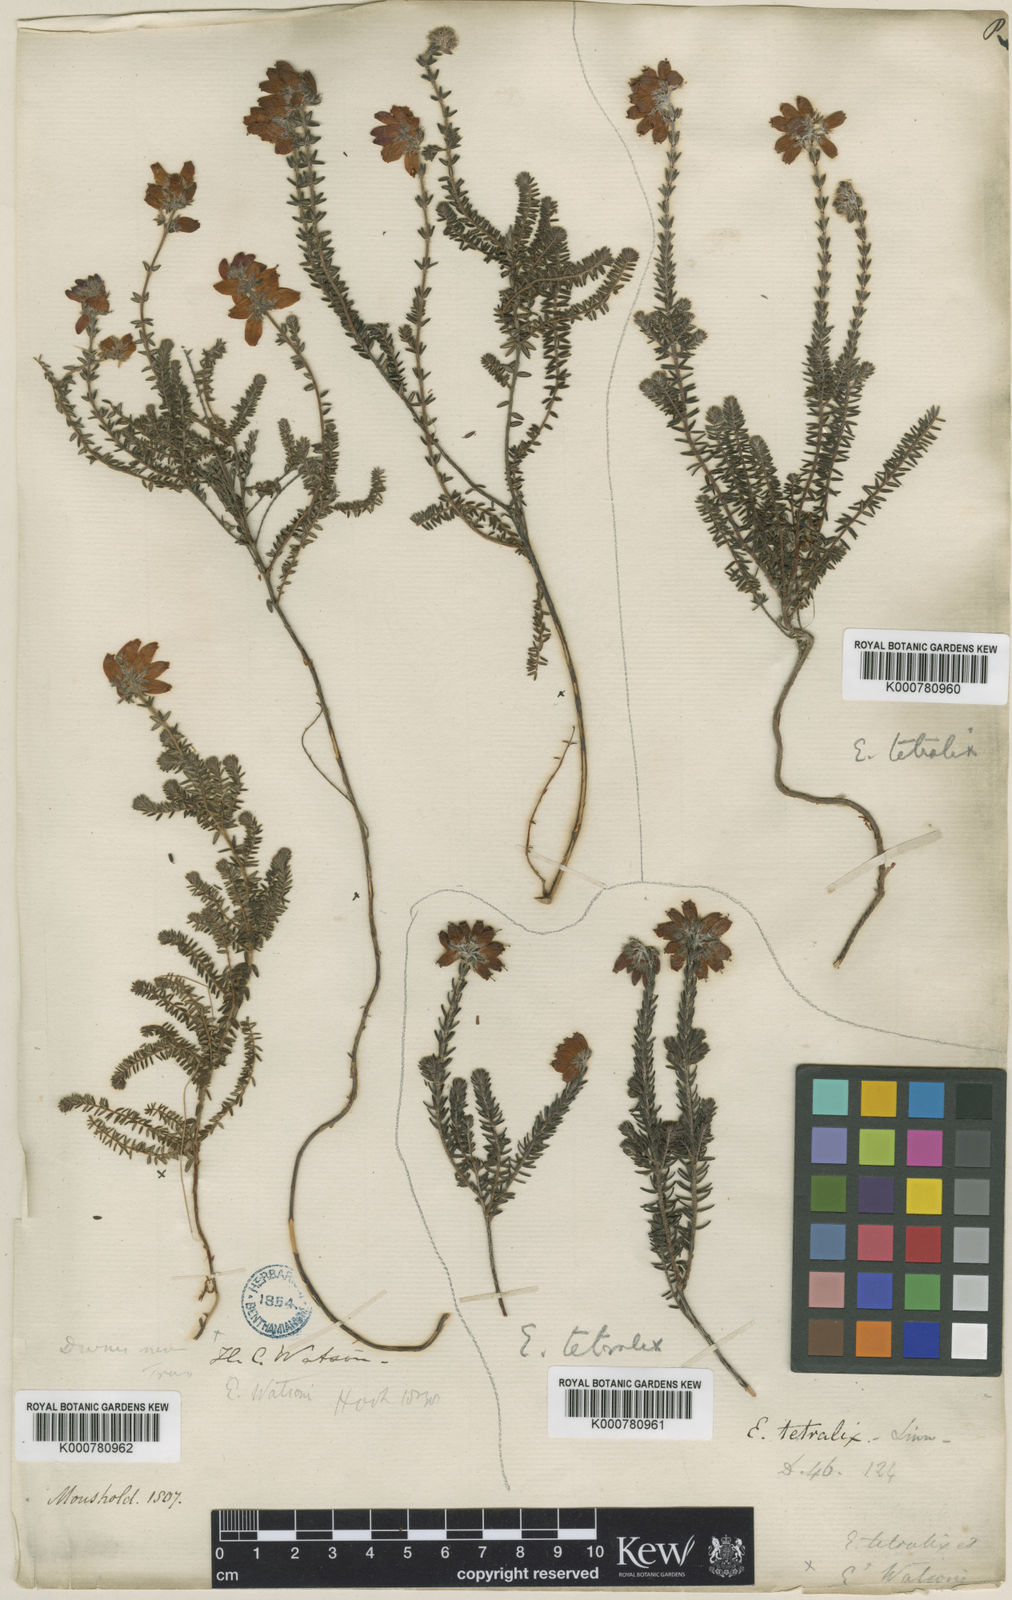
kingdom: Plantae
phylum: Tracheophyta
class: Magnoliopsida
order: Ericales
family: Ericaceae
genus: Erica
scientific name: Erica watsonii
